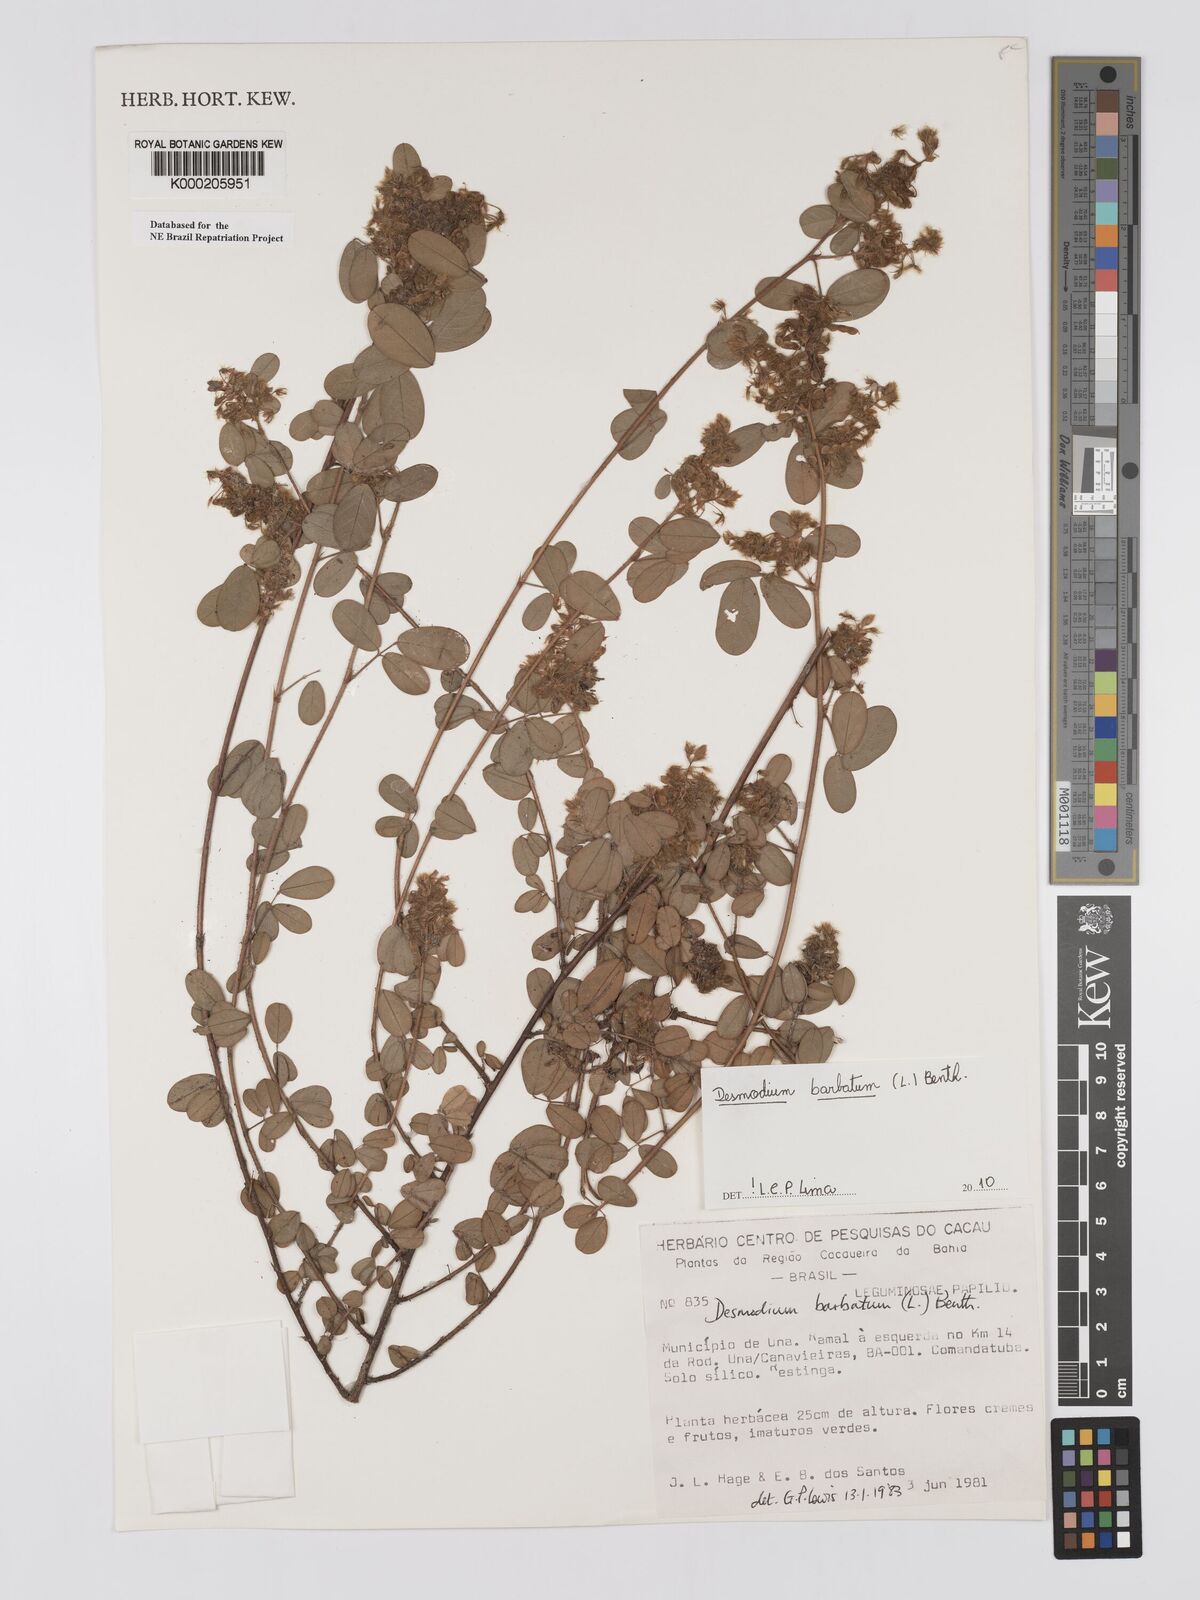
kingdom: Plantae
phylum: Tracheophyta
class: Magnoliopsida
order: Fabales
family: Fabaceae
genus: Grona
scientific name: Grona barbata
